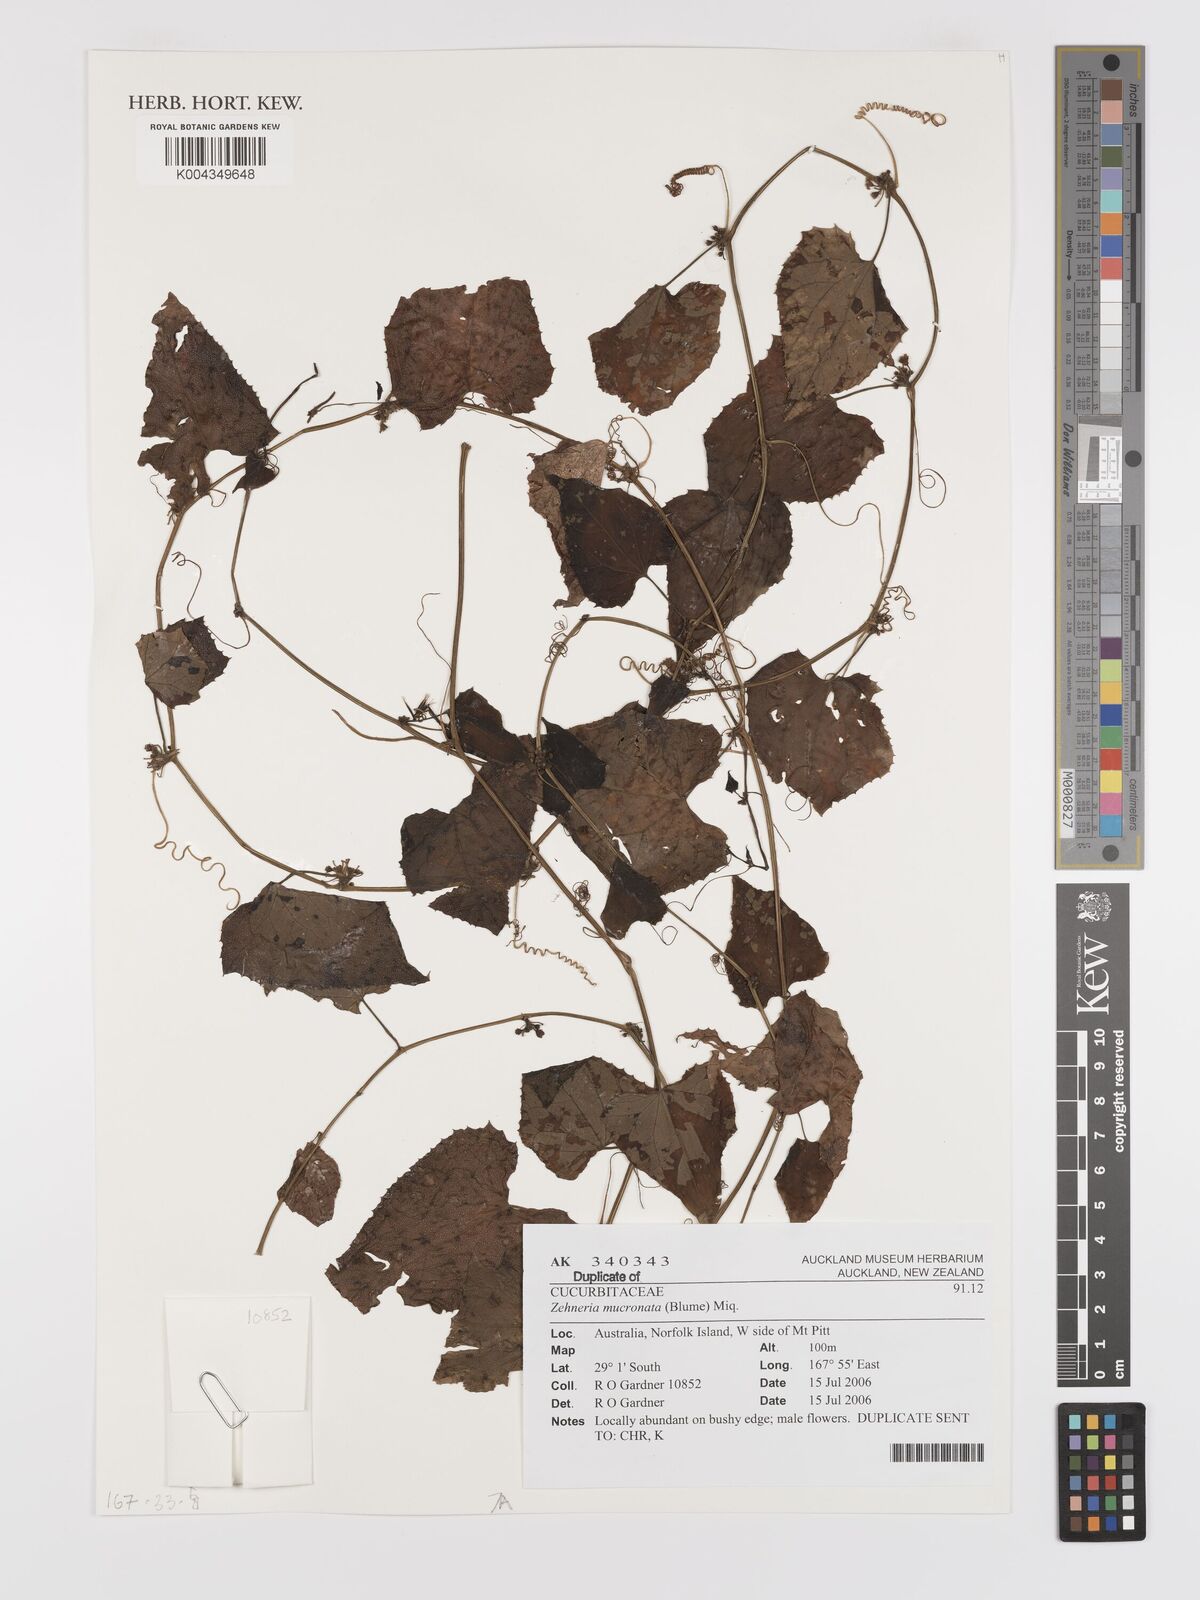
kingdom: Plantae
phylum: Tracheophyta
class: Magnoliopsida
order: Cucurbitales
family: Cucurbitaceae
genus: Zehneria
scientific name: Zehneria mucronata
